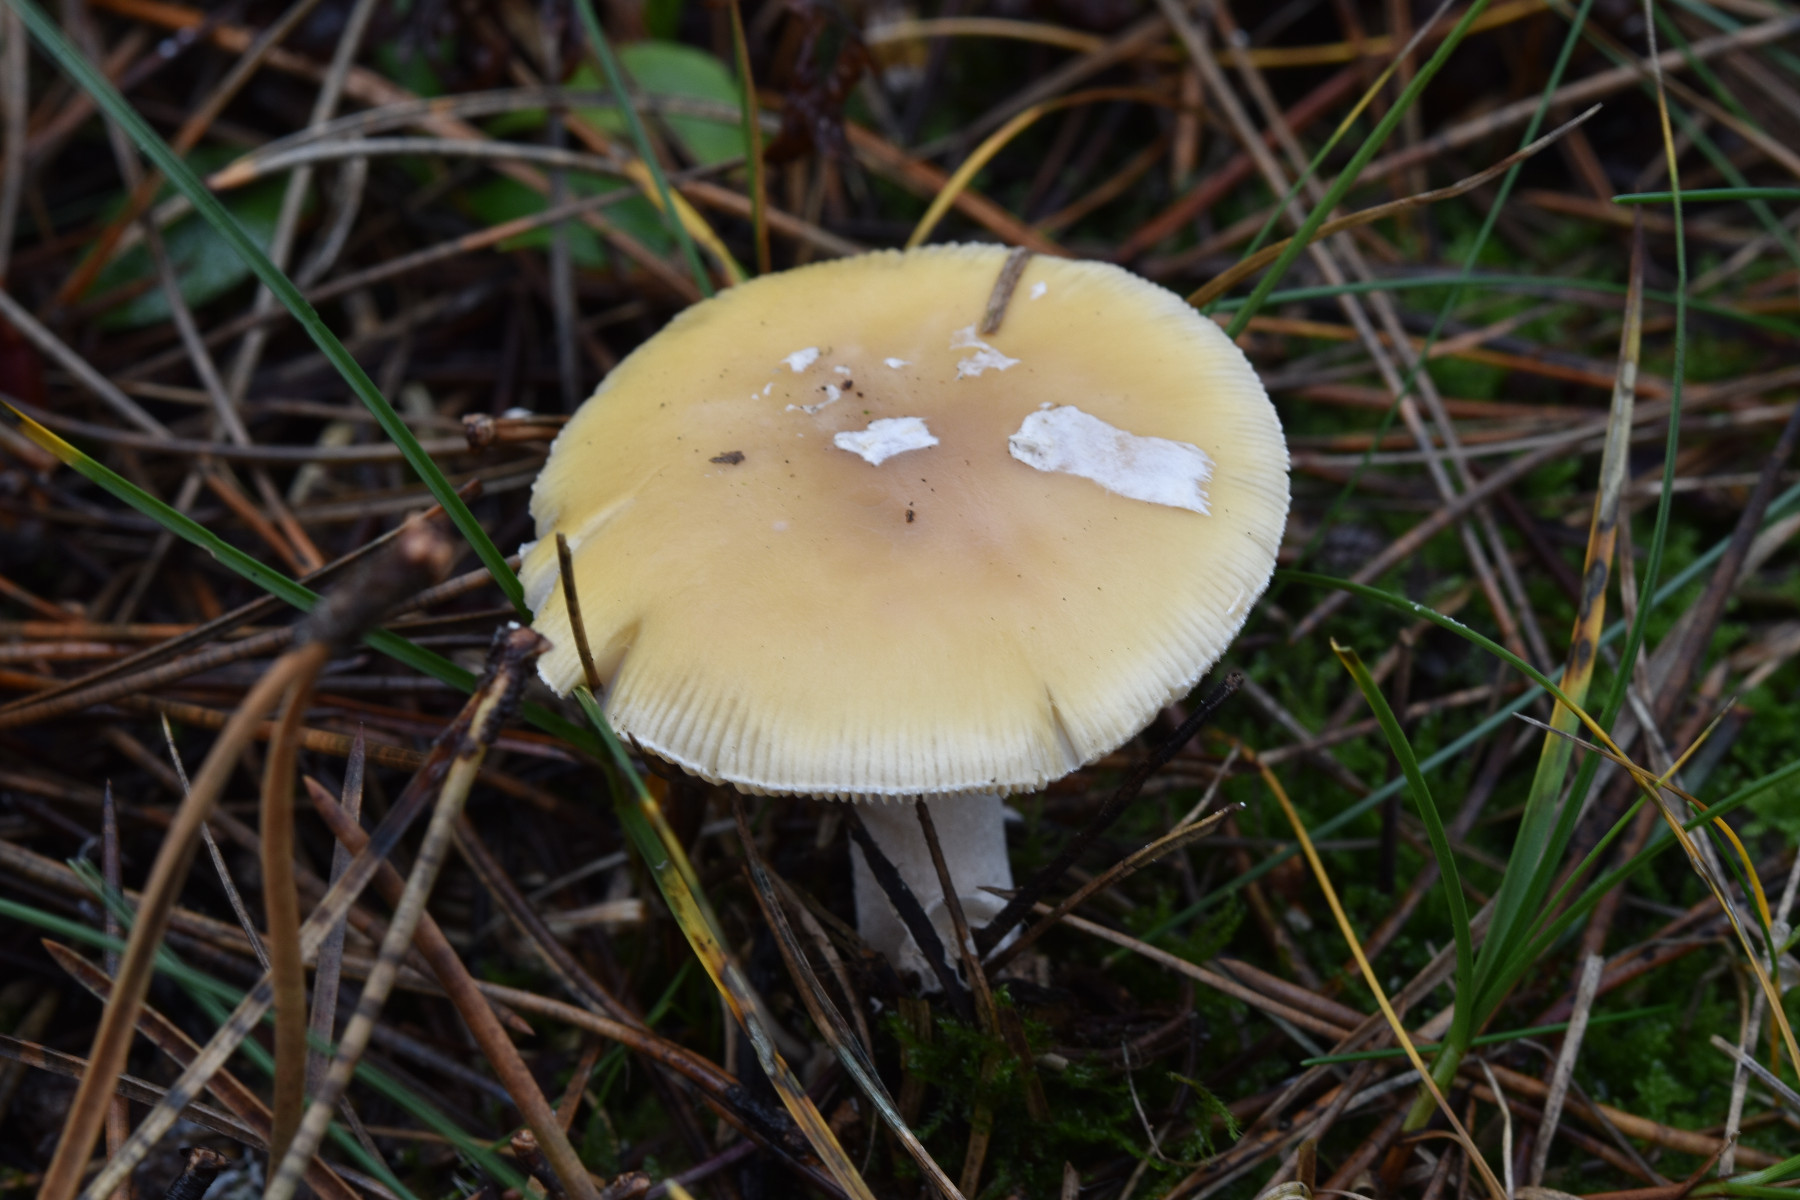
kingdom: Fungi
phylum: Basidiomycota
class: Agaricomycetes
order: Agaricales
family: Amanitaceae
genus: Amanita
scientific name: Amanita gemmata
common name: okkergul fluesvamp
